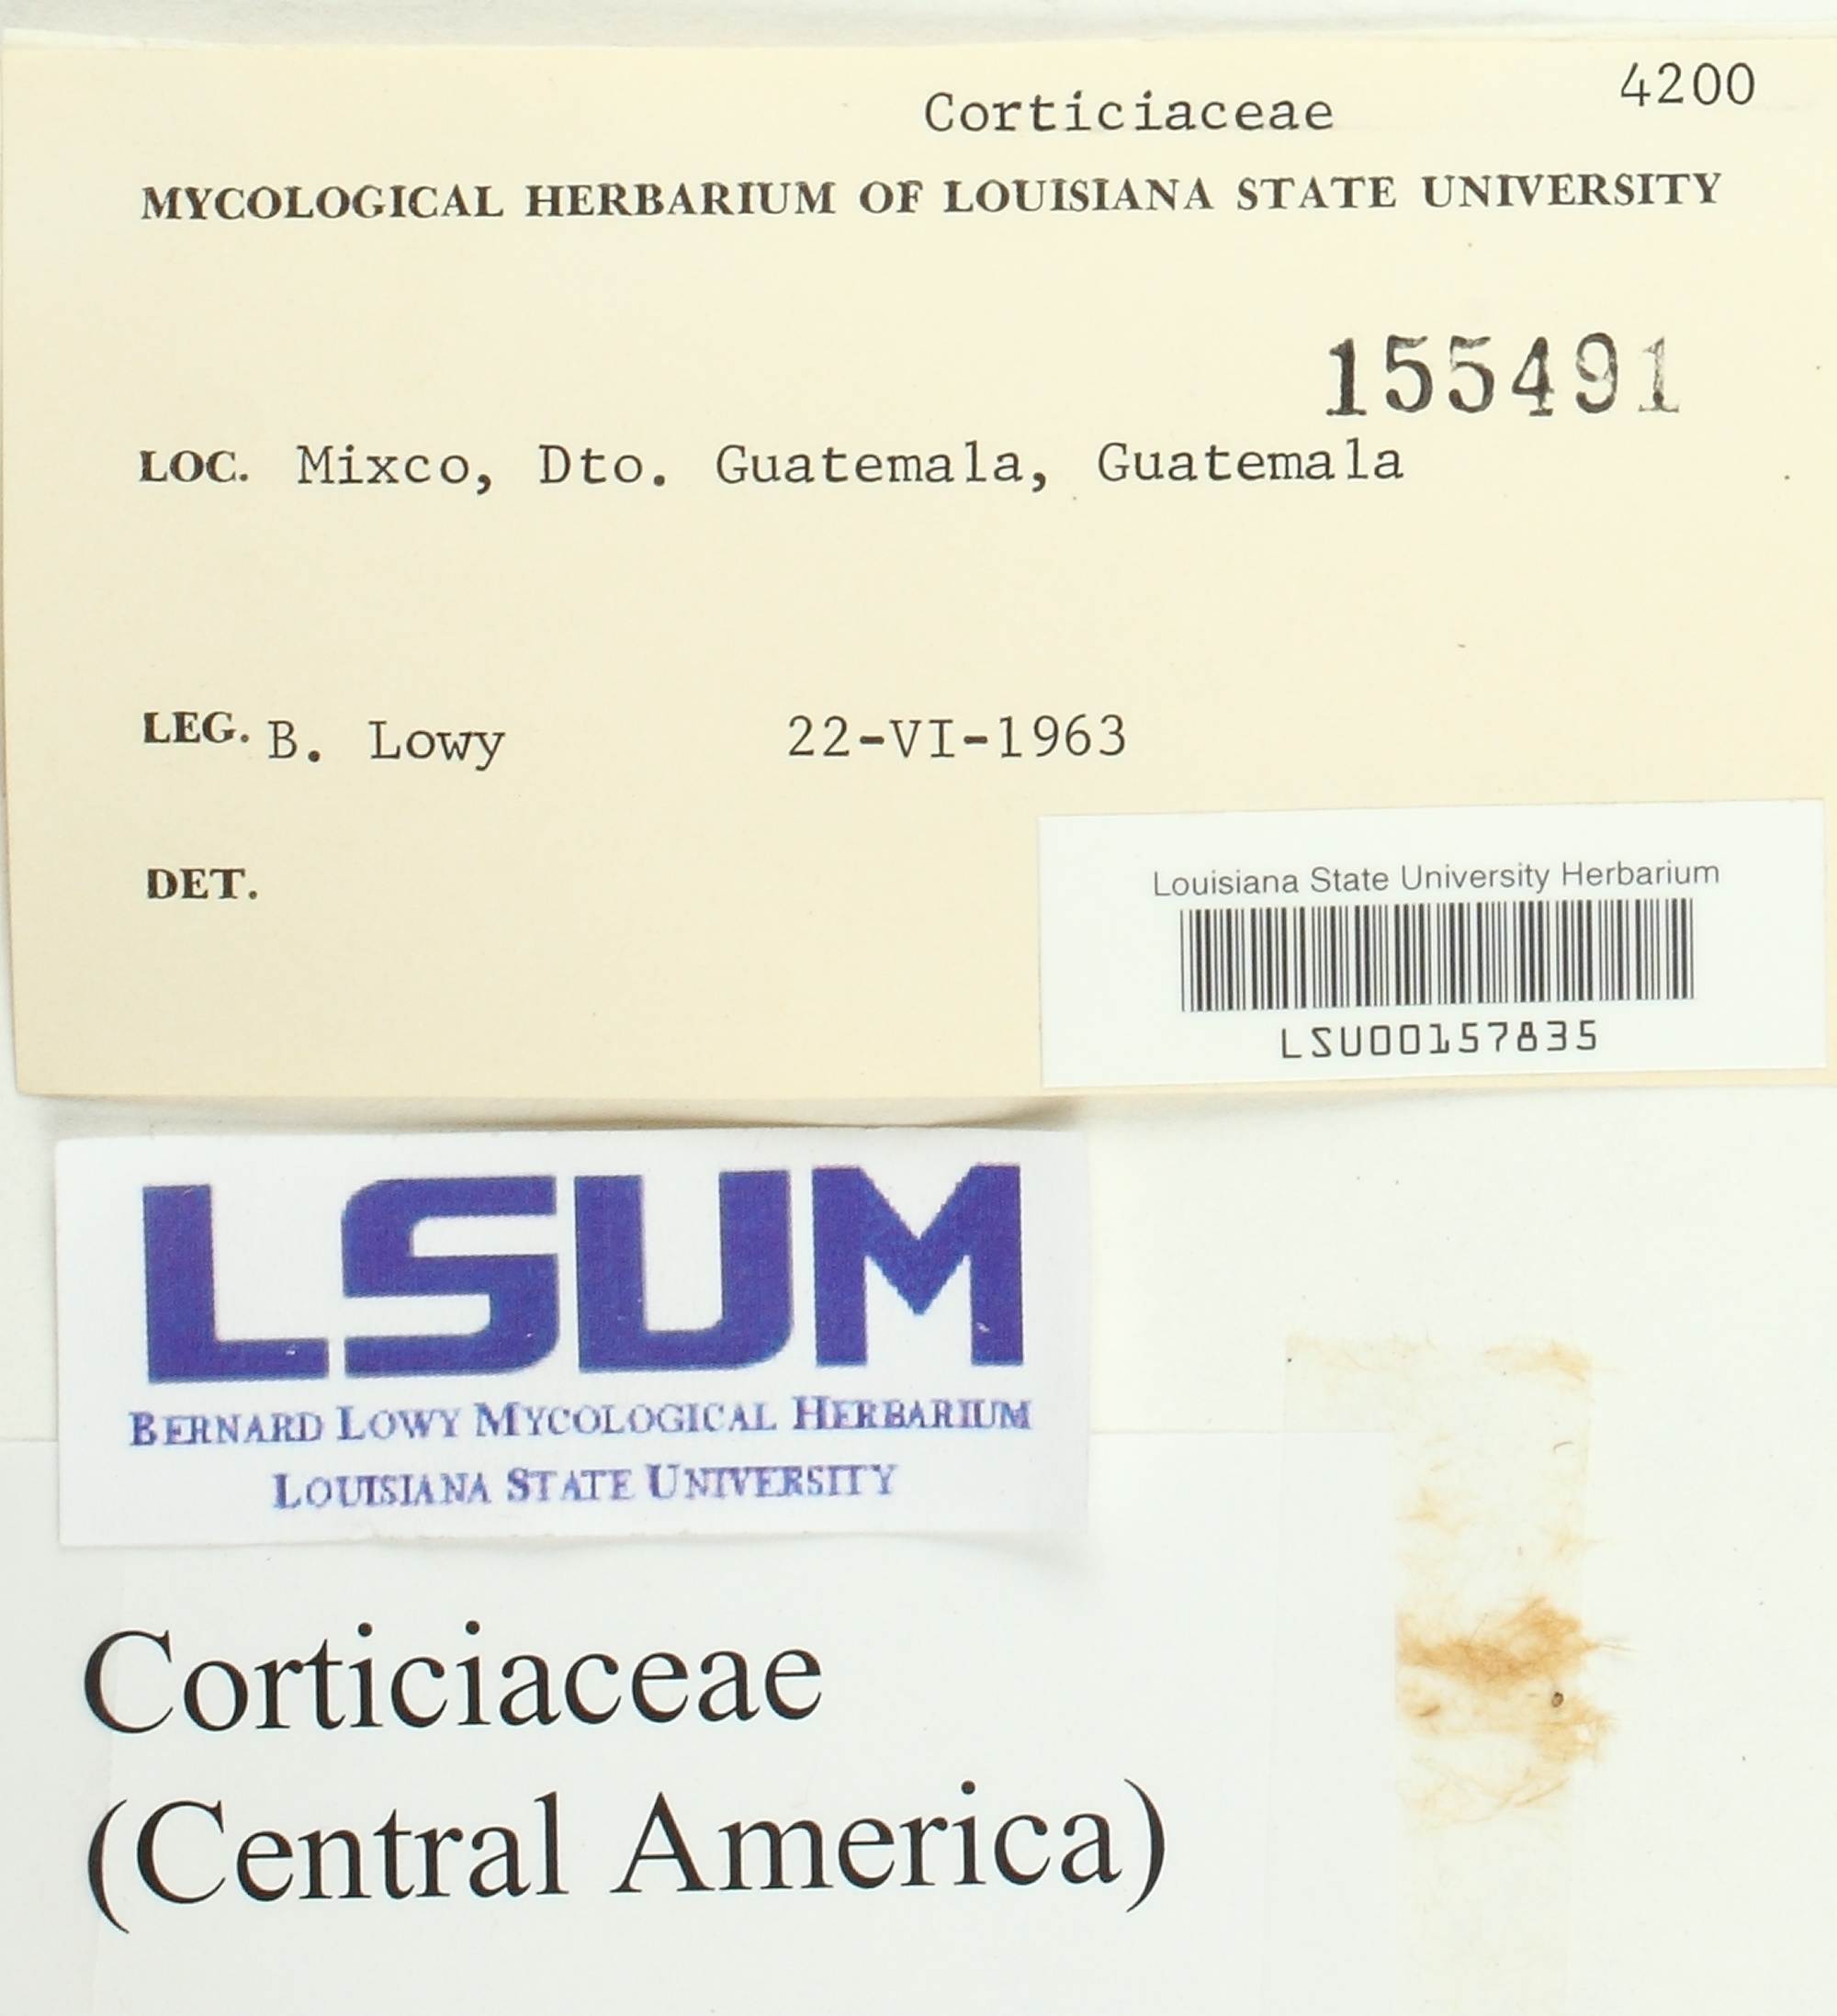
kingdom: Fungi
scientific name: Fungi
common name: Fungi
